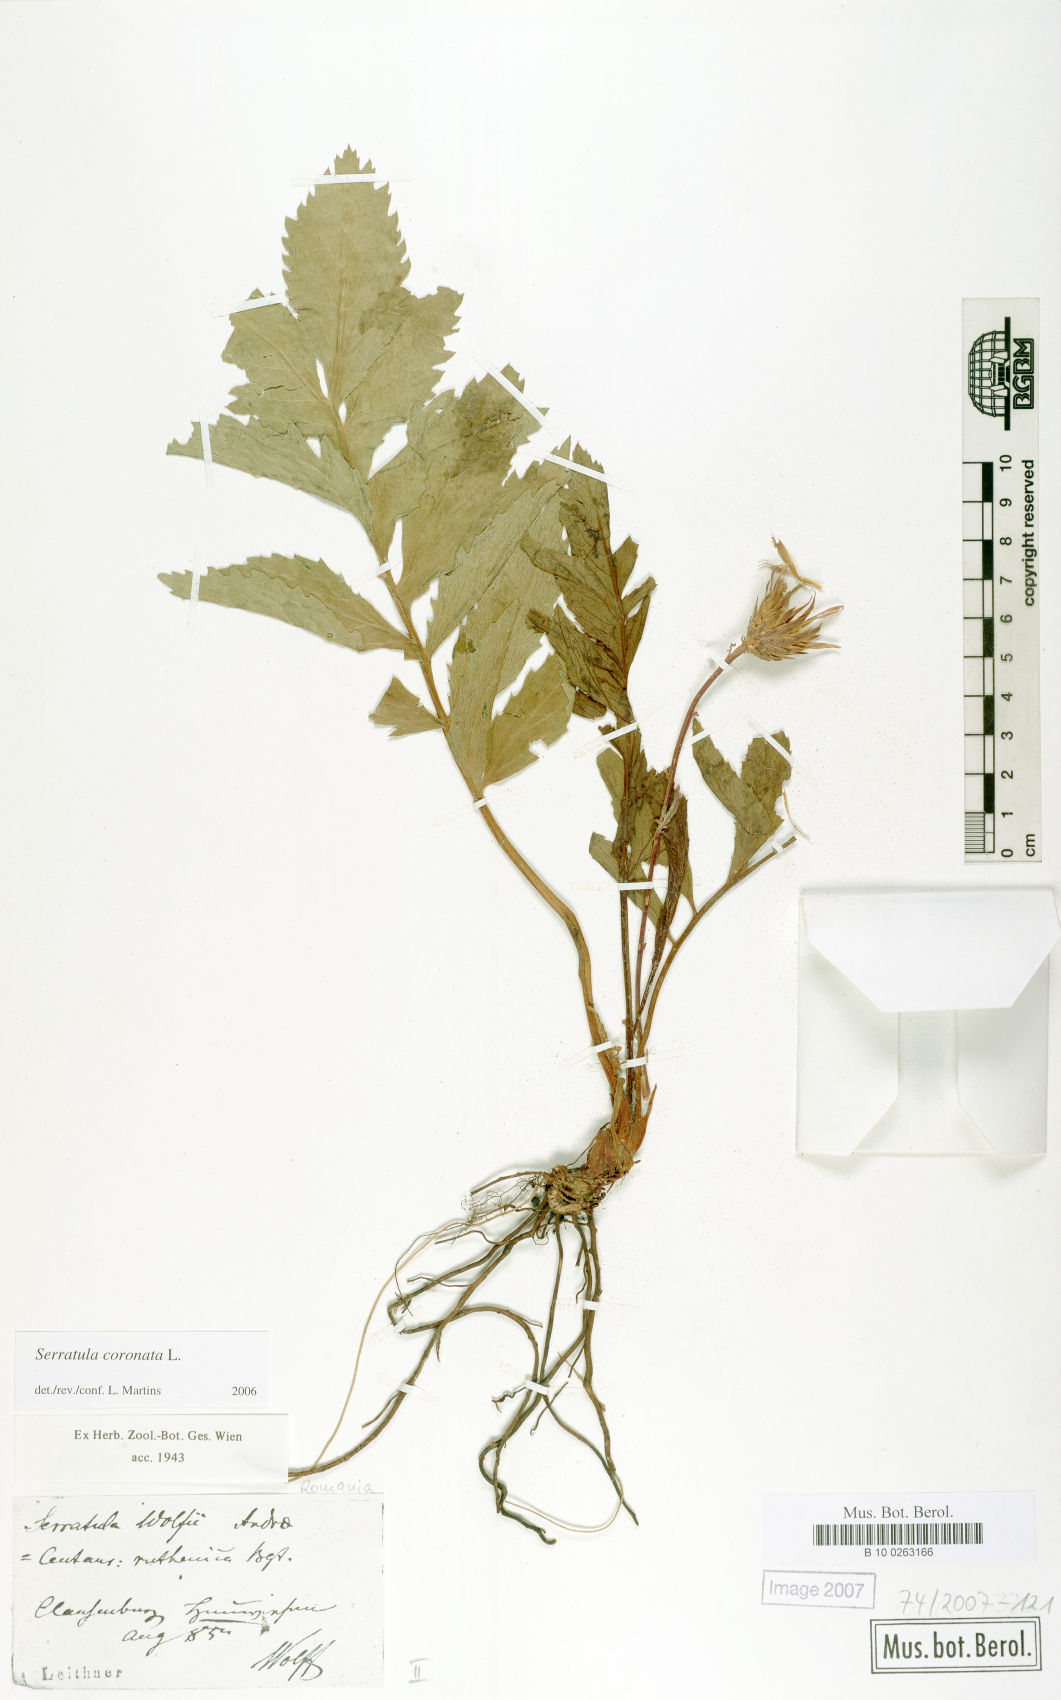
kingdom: Plantae
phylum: Tracheophyta
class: Magnoliopsida
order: Asterales
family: Asteraceae
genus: Serratula
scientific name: Serratula coronata
